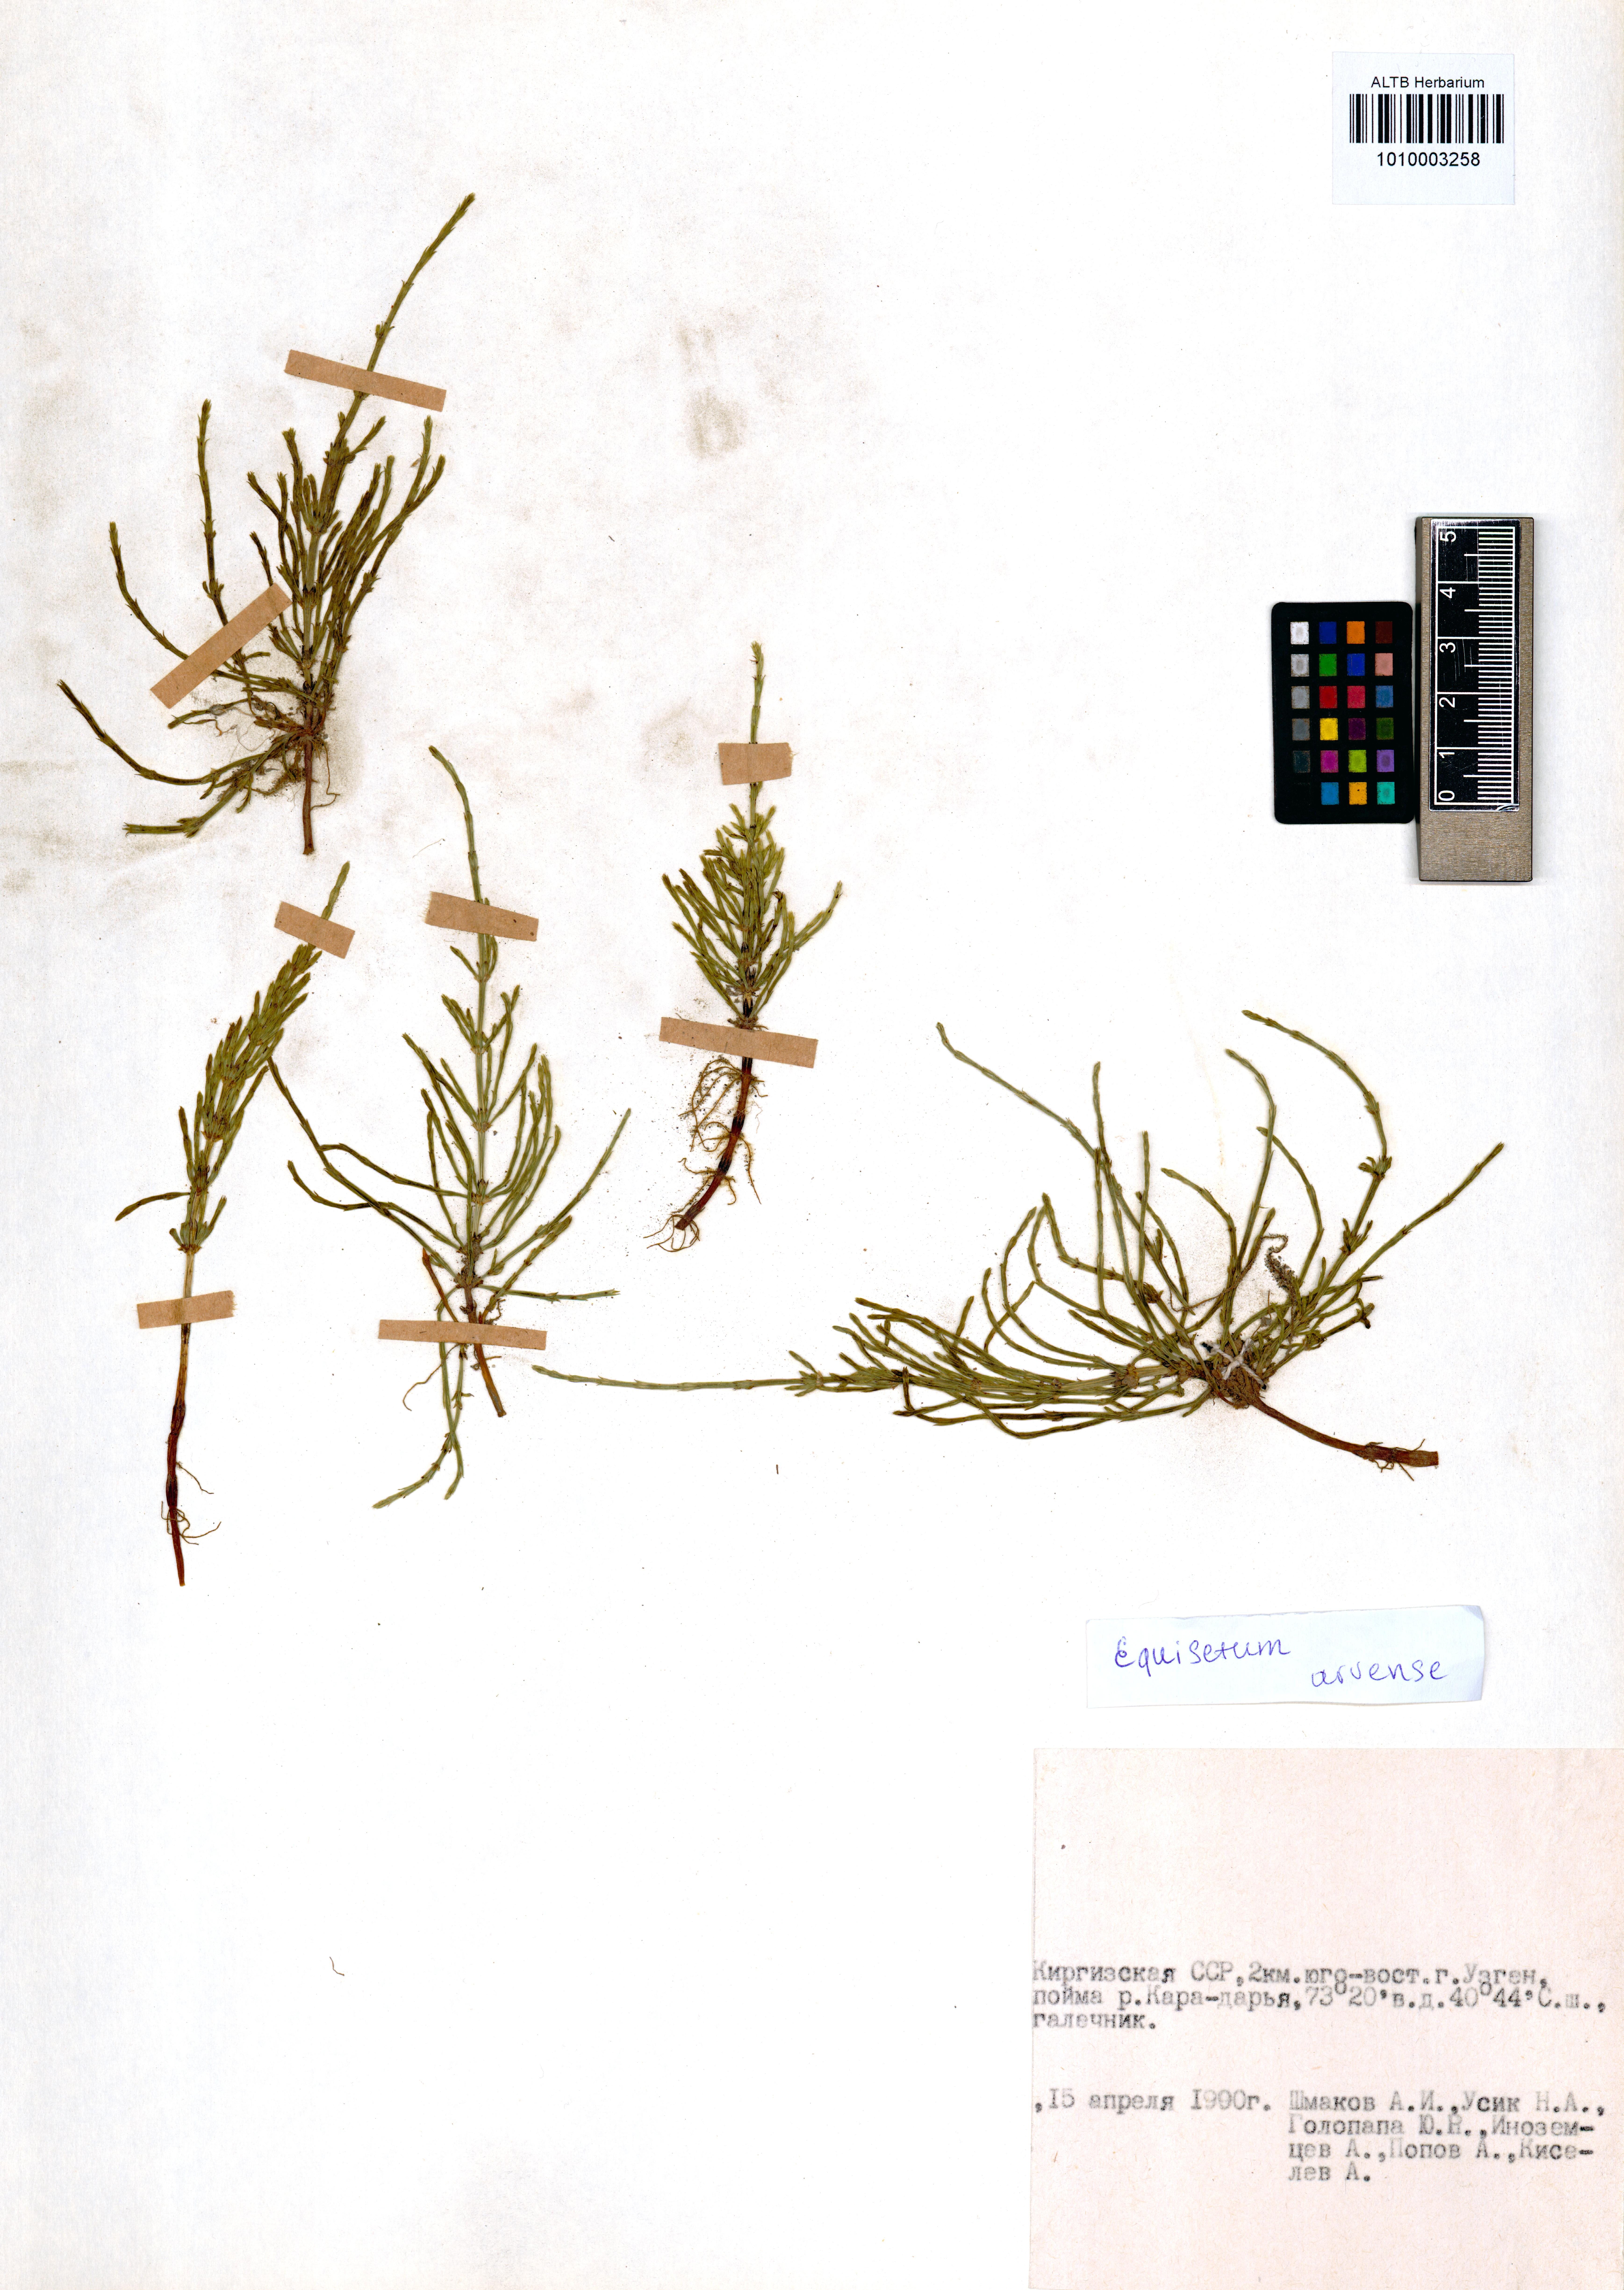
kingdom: Plantae
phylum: Tracheophyta
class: Polypodiopsida
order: Equisetales
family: Equisetaceae
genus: Equisetum
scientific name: Equisetum arvense
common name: Field horsetail
